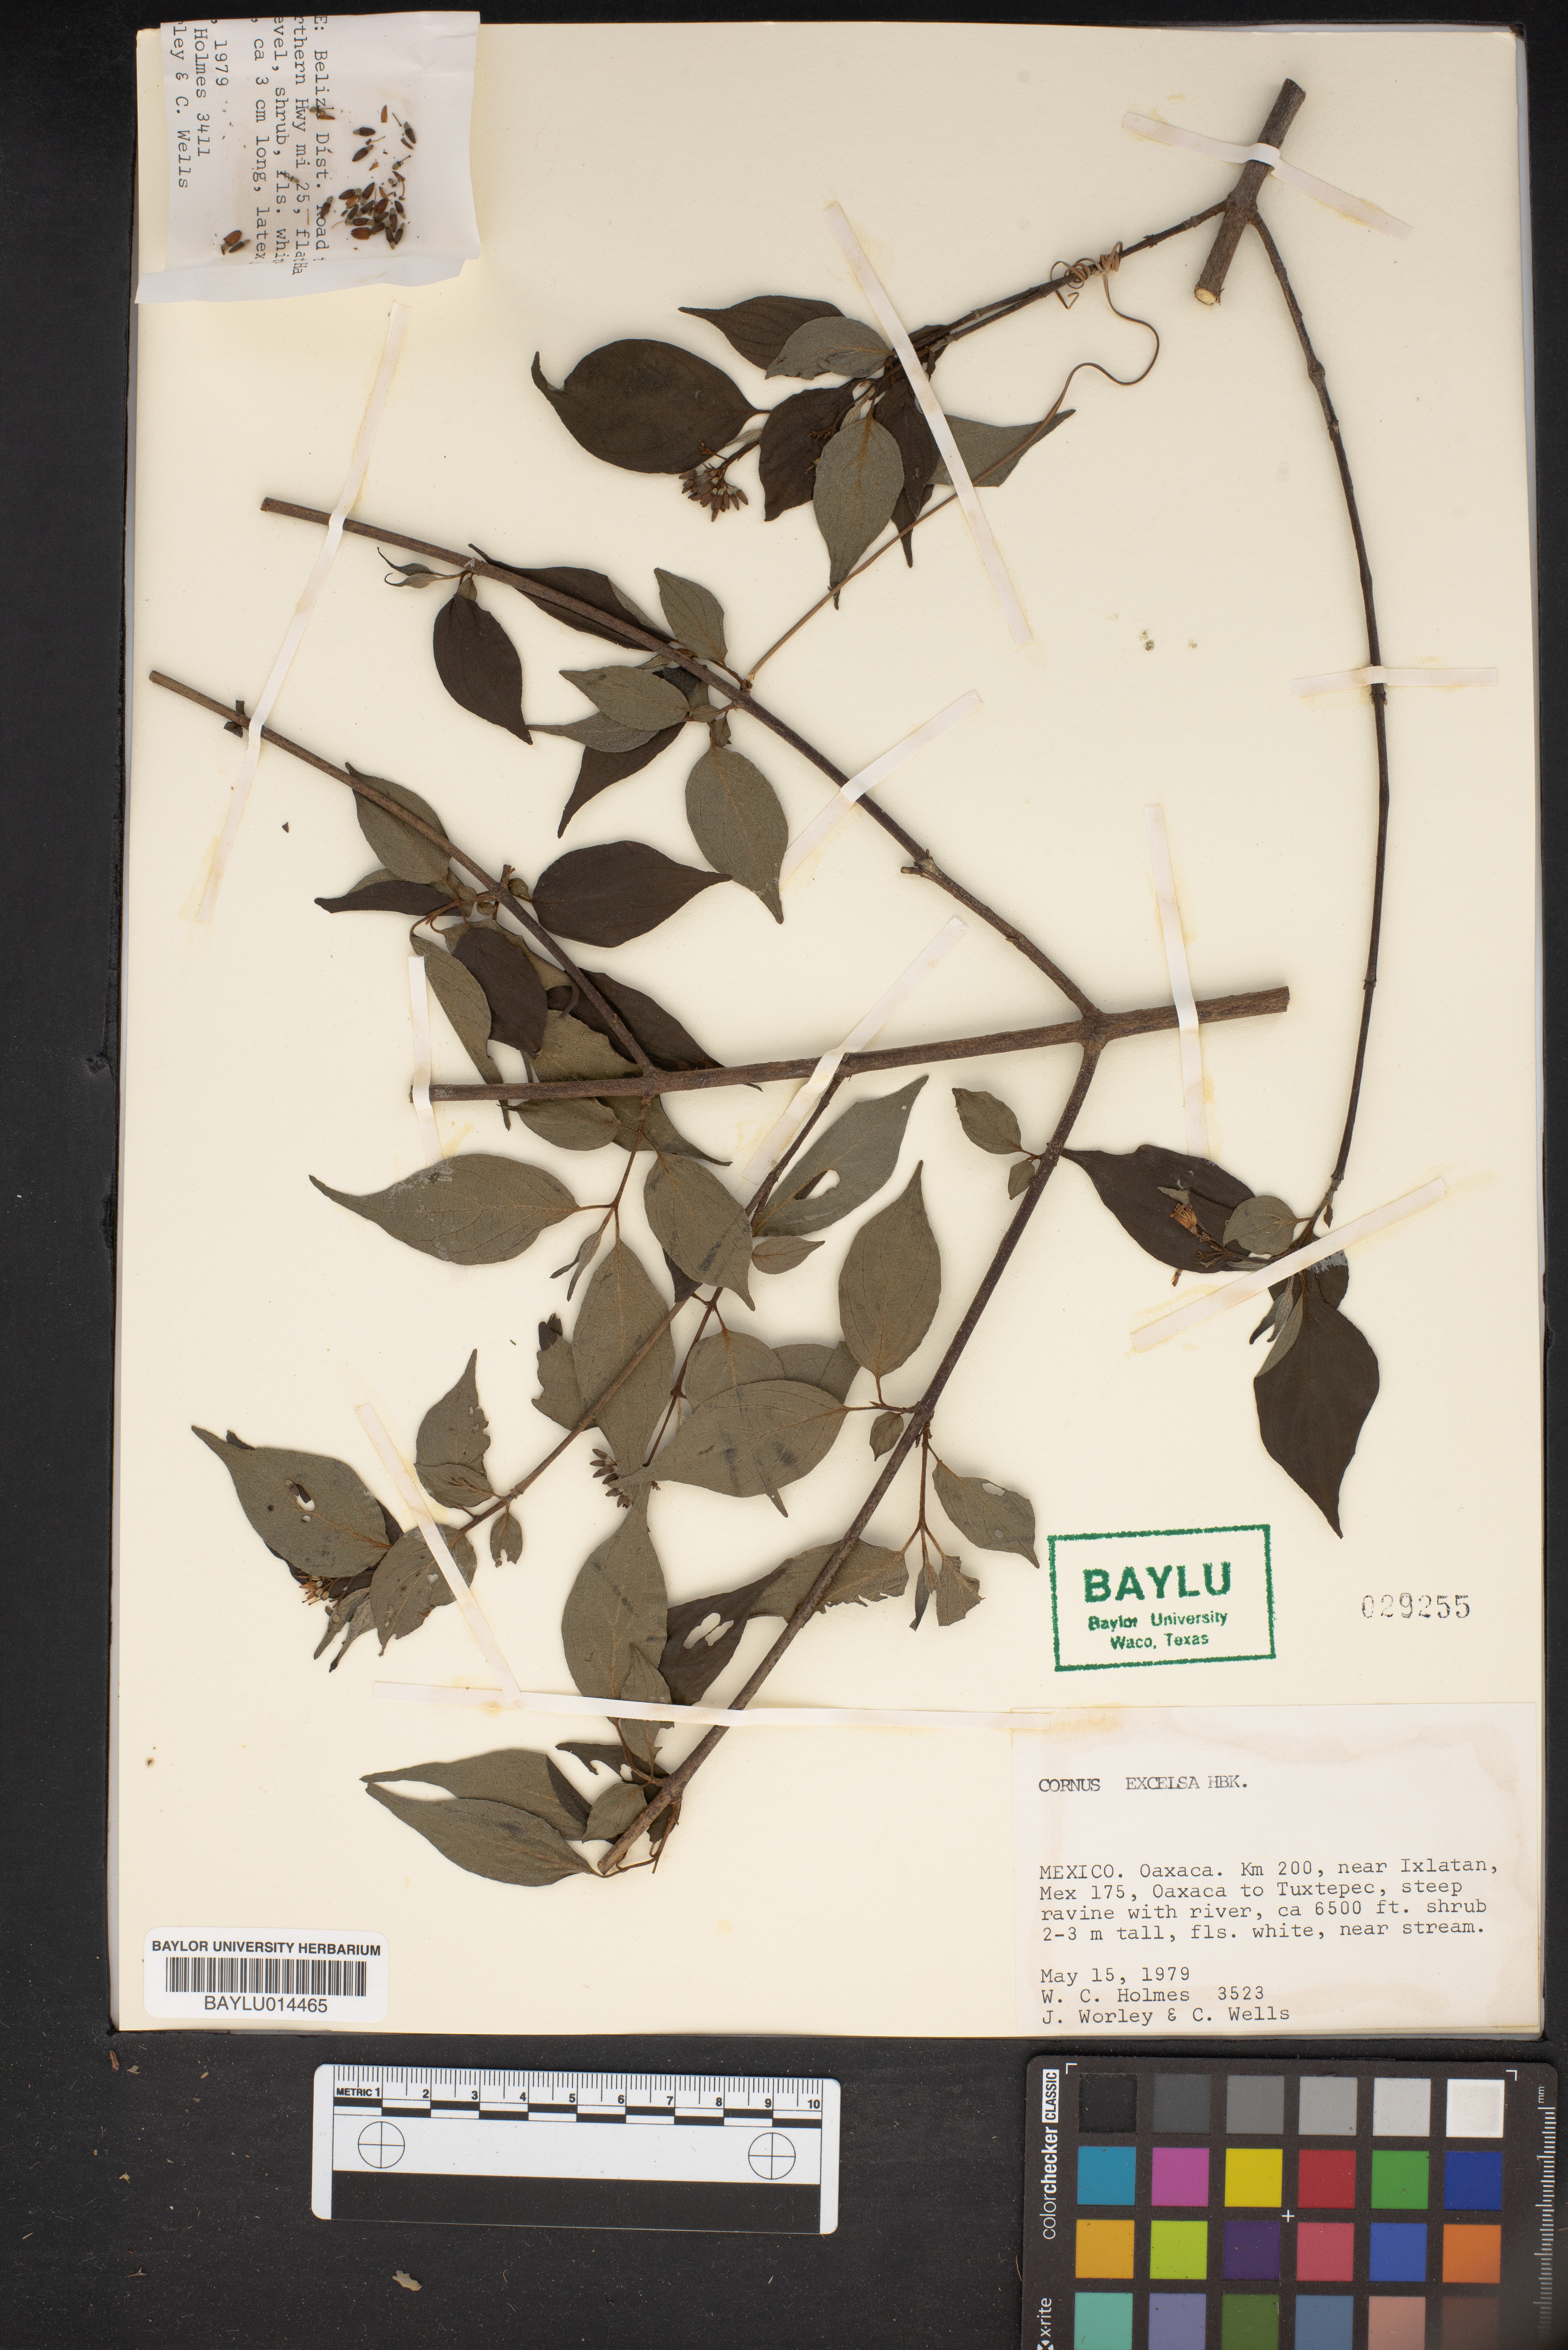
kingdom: Plantae
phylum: Tracheophyta
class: Magnoliopsida
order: Cornales
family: Cornaceae
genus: Cornus
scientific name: Cornus excelsa
